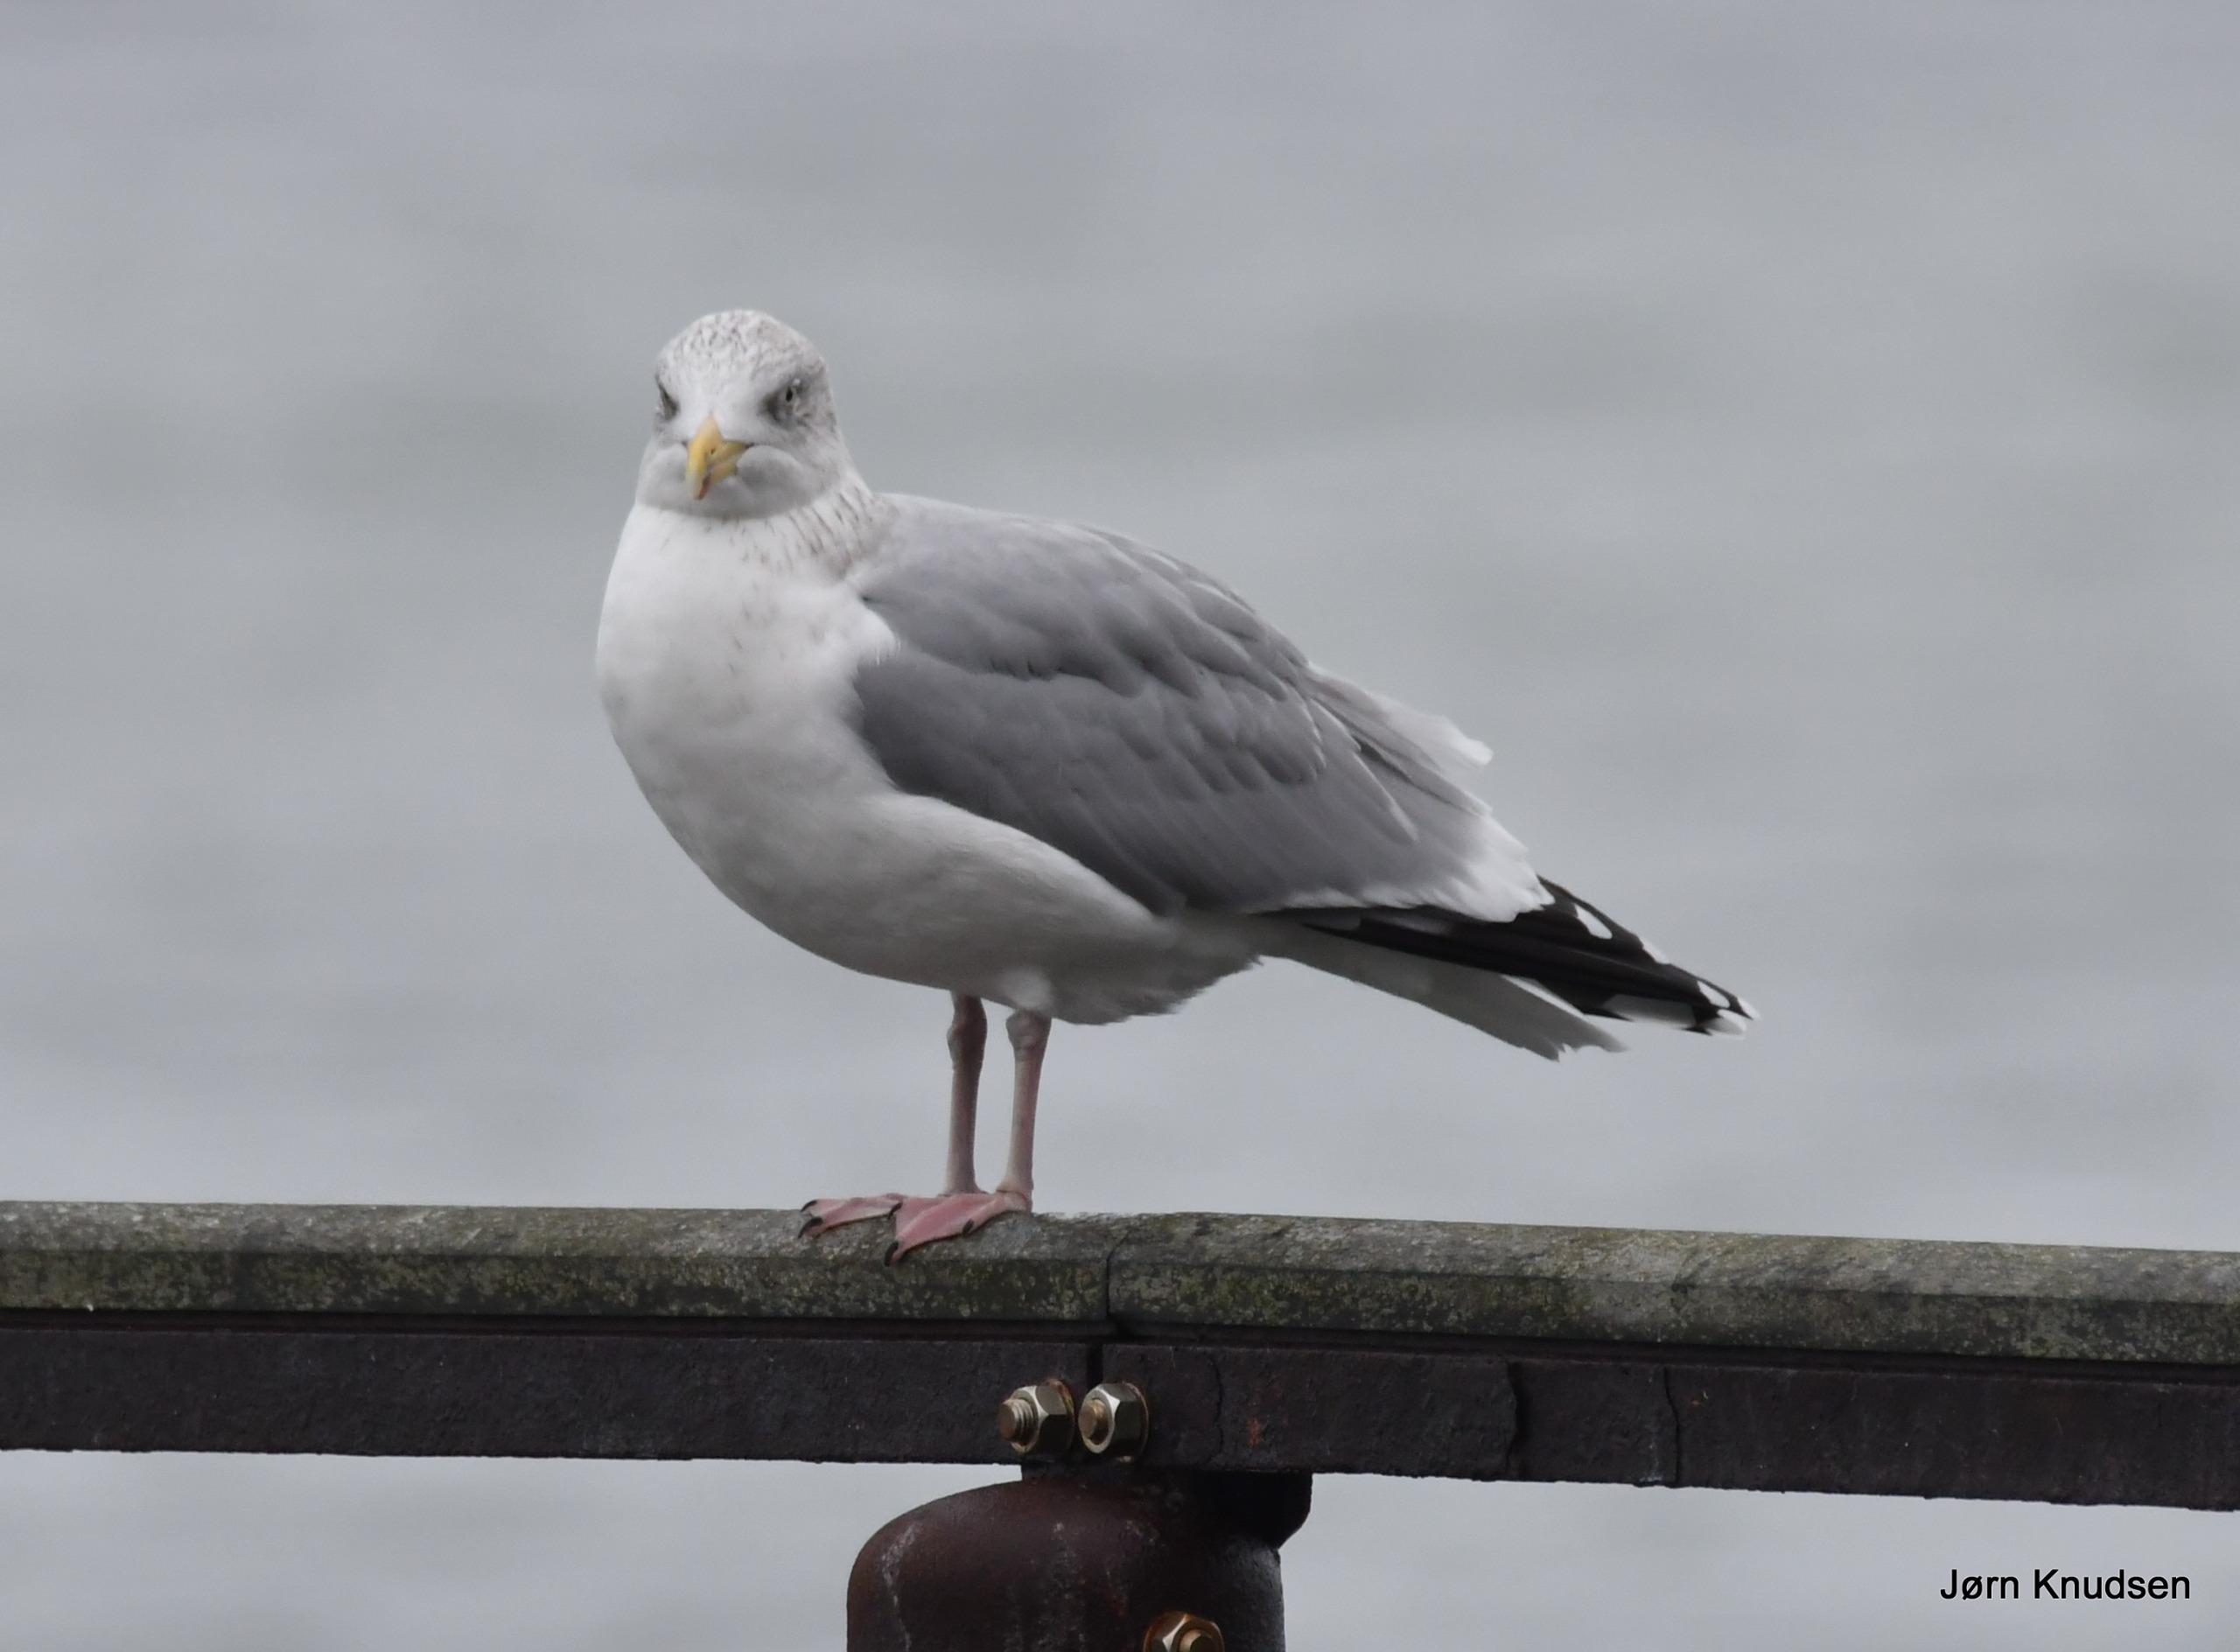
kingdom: Animalia
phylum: Chordata
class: Aves
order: Charadriiformes
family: Laridae
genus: Larus
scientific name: Larus argentatus
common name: Sølvmåge
